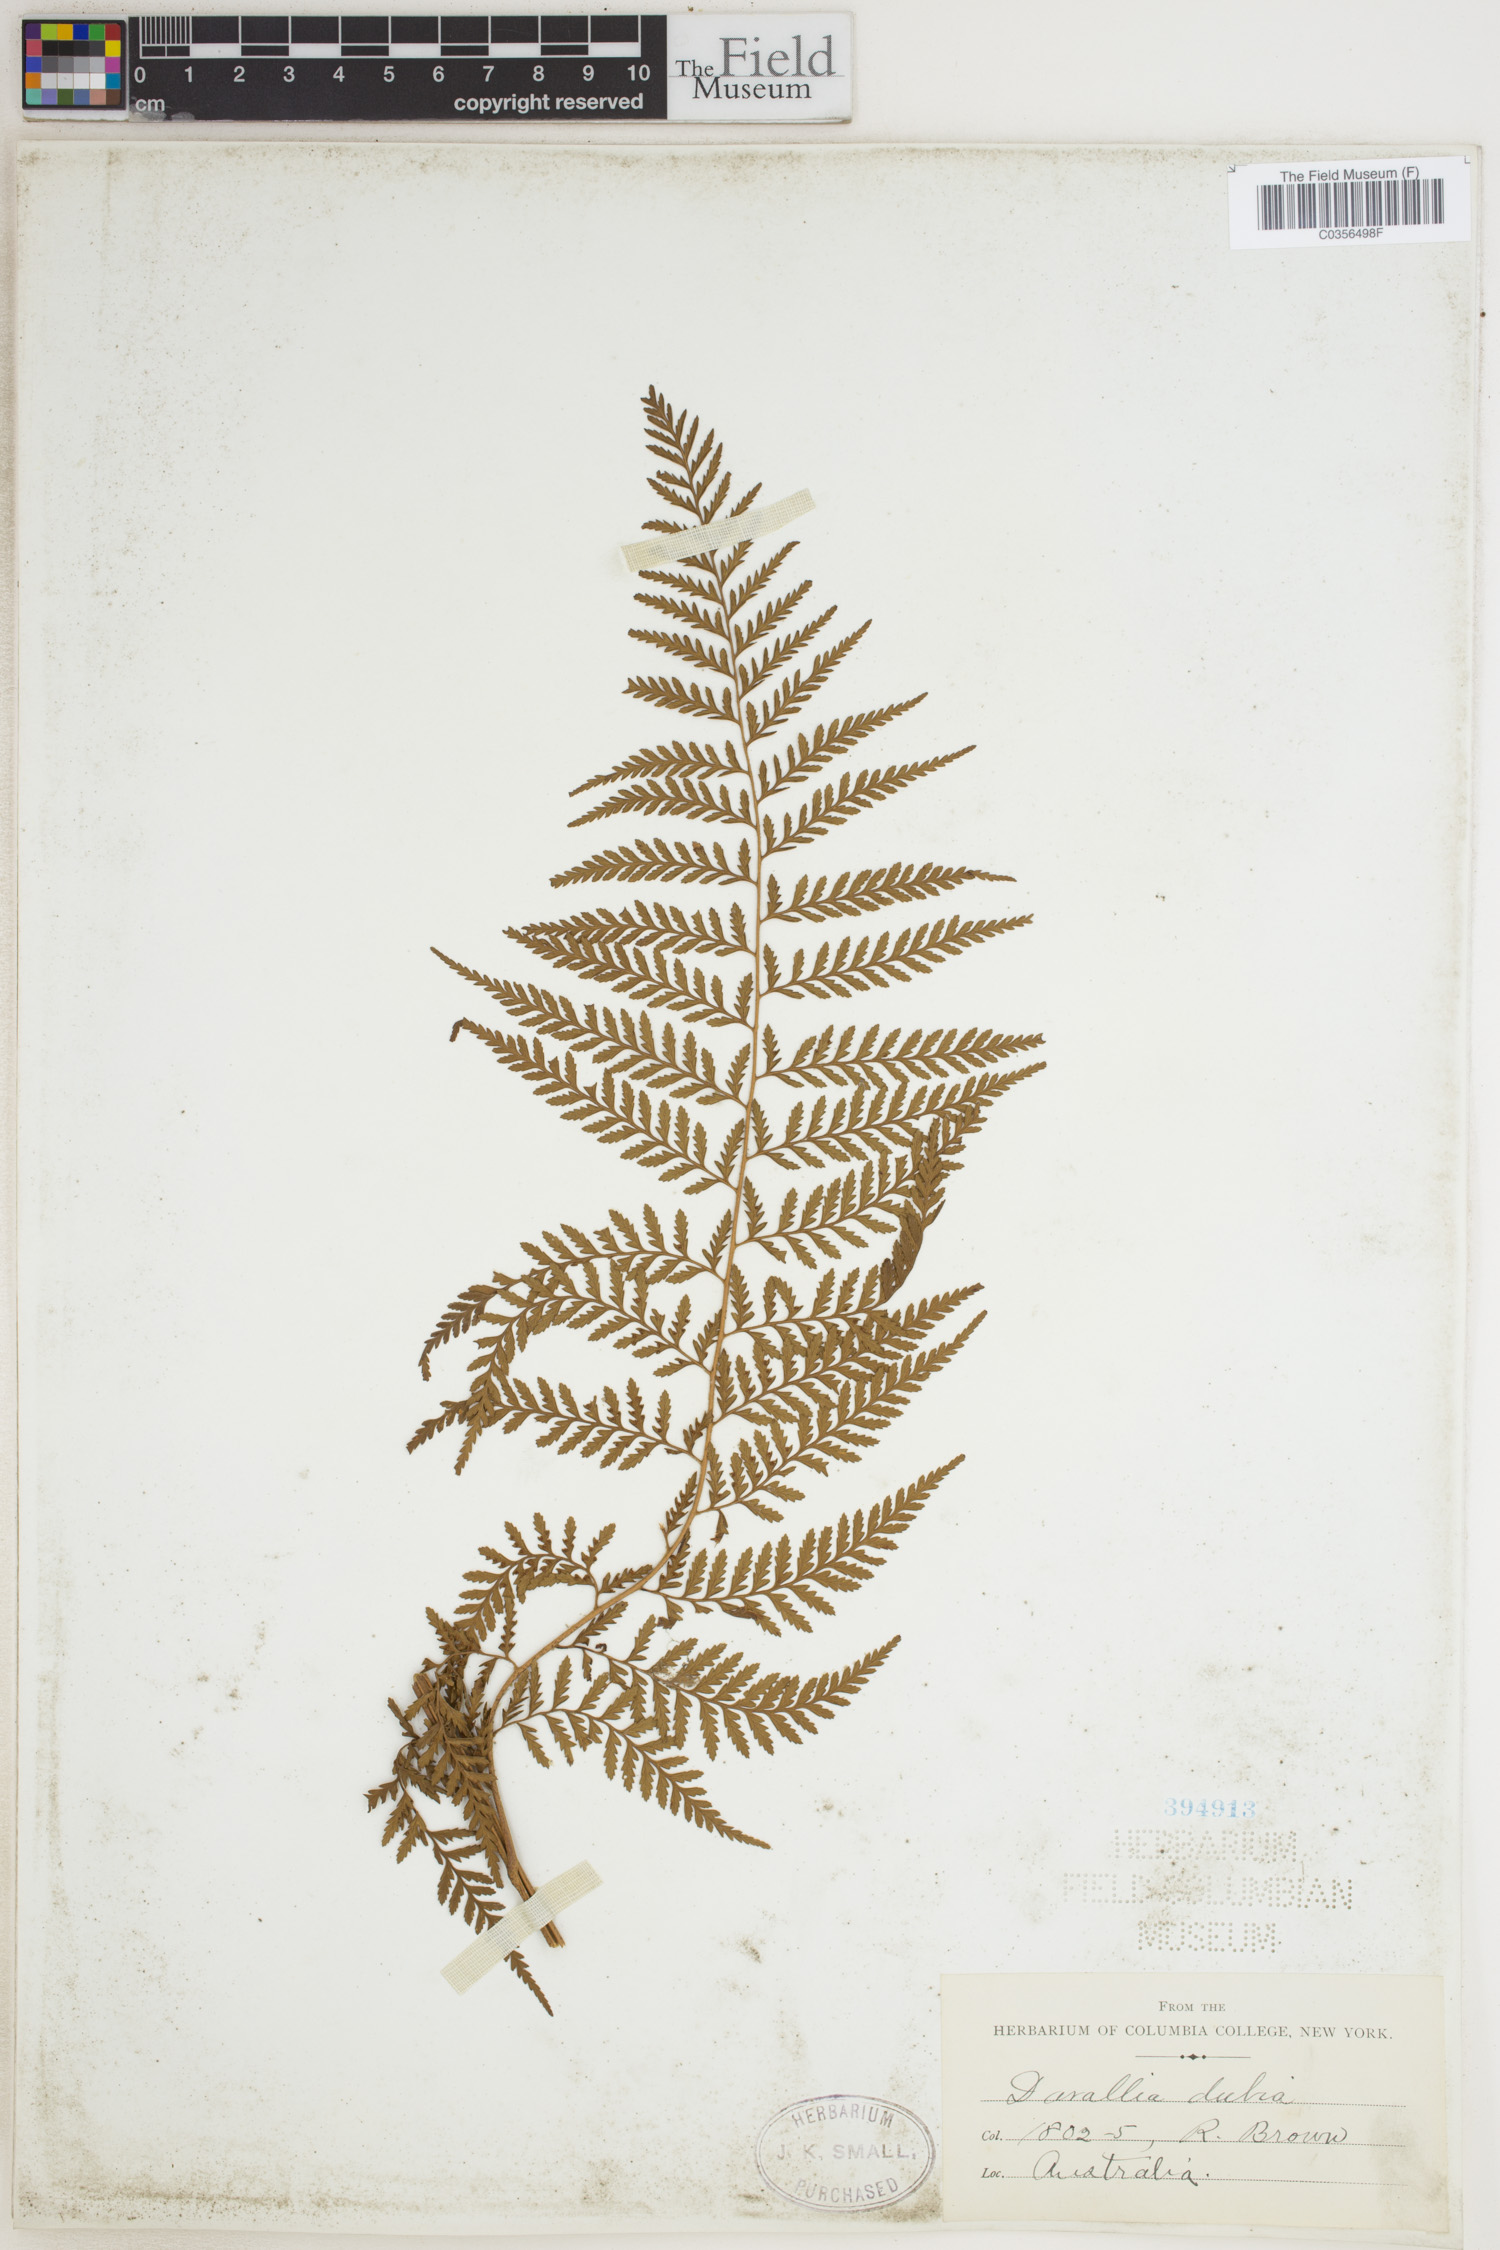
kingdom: Plantae
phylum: Tracheophyta
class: Polypodiopsida
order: Polypodiales
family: Davalliaceae
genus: Davallia
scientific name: Davallia dubia
